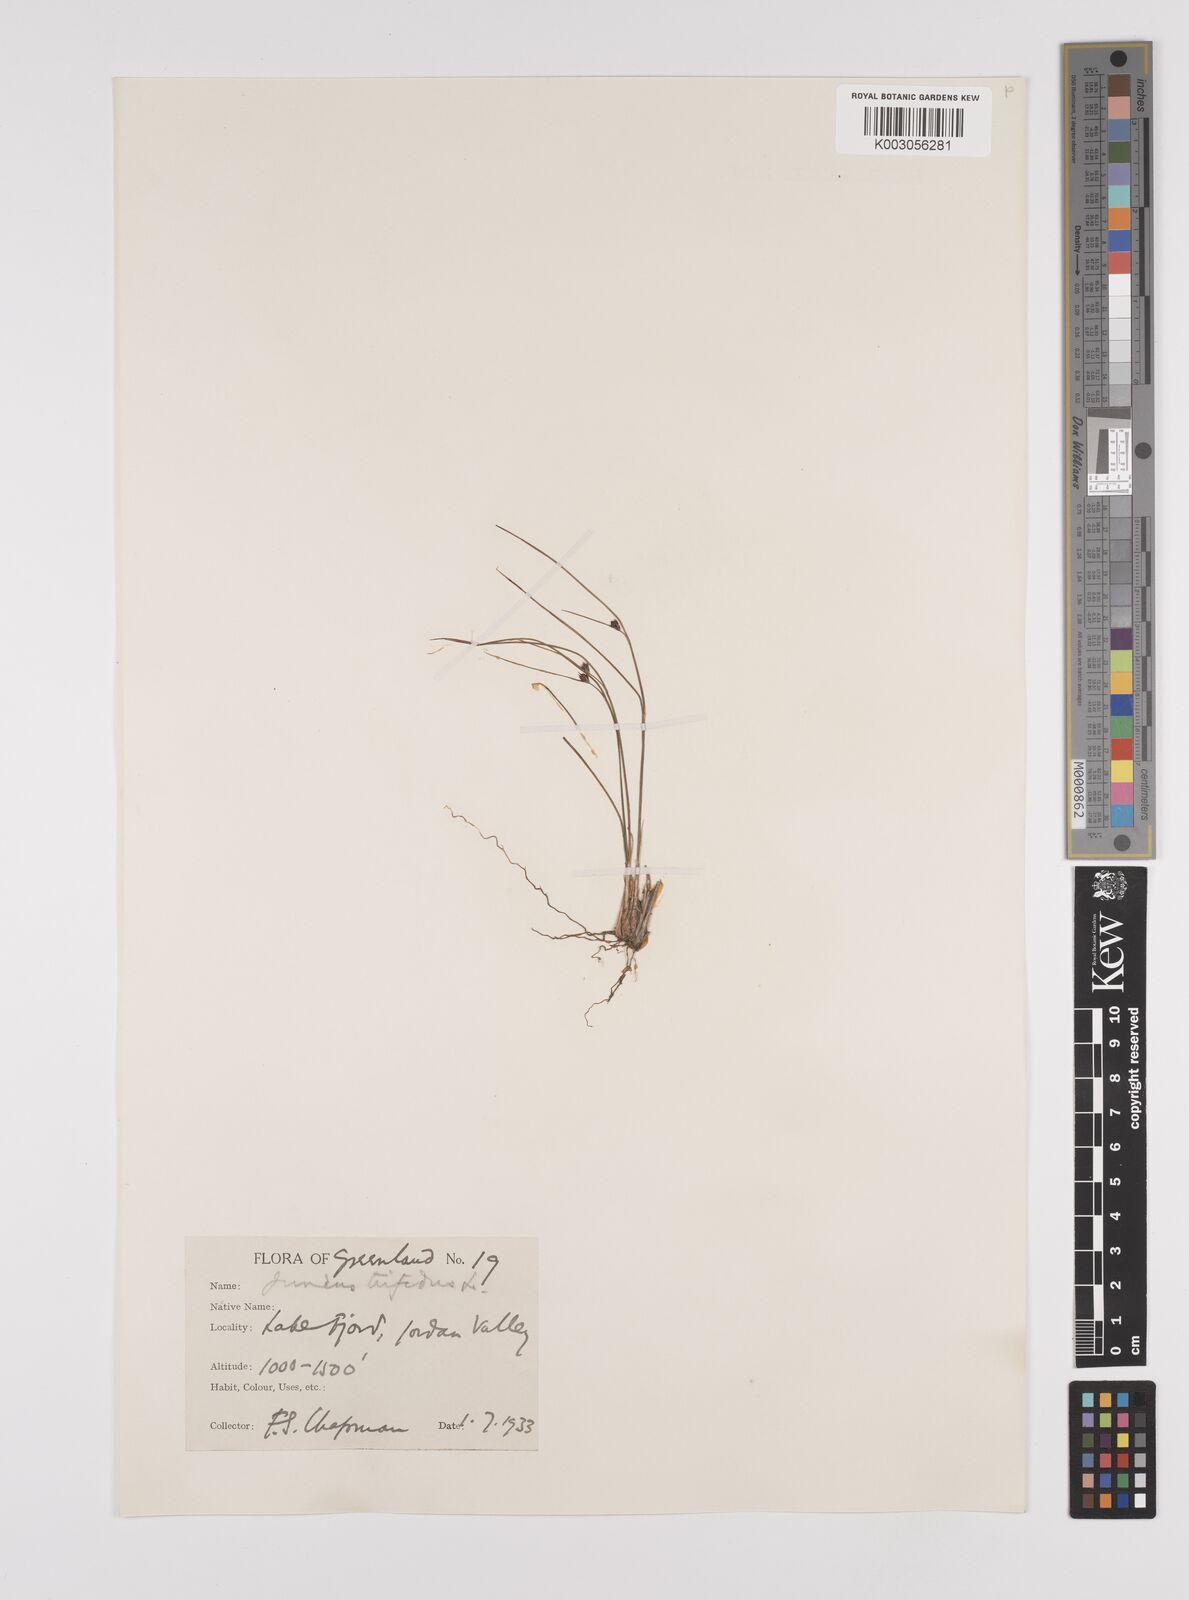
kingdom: Plantae
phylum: Tracheophyta
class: Liliopsida
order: Poales
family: Juncaceae
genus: Oreojuncus
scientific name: Oreojuncus trifidus
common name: Highland rush
